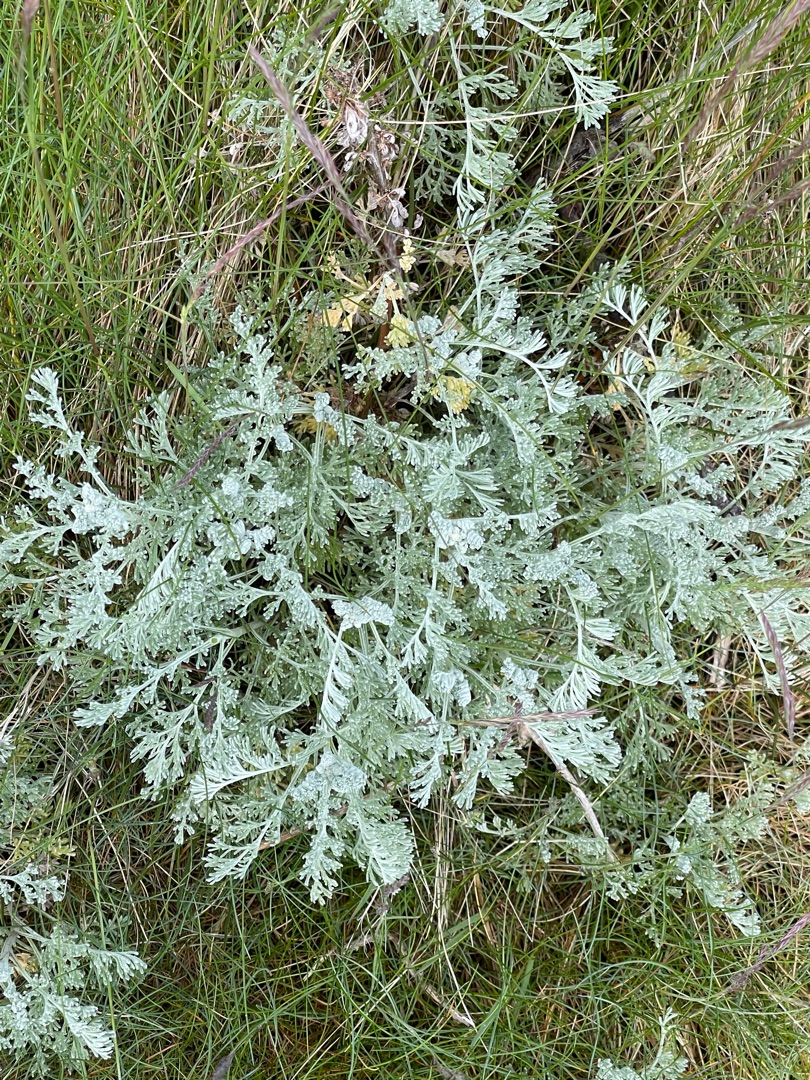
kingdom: Plantae
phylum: Tracheophyta
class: Magnoliopsida
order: Asterales
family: Asteraceae
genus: Artemisia
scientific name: Artemisia maritima
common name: Strandmalurt
